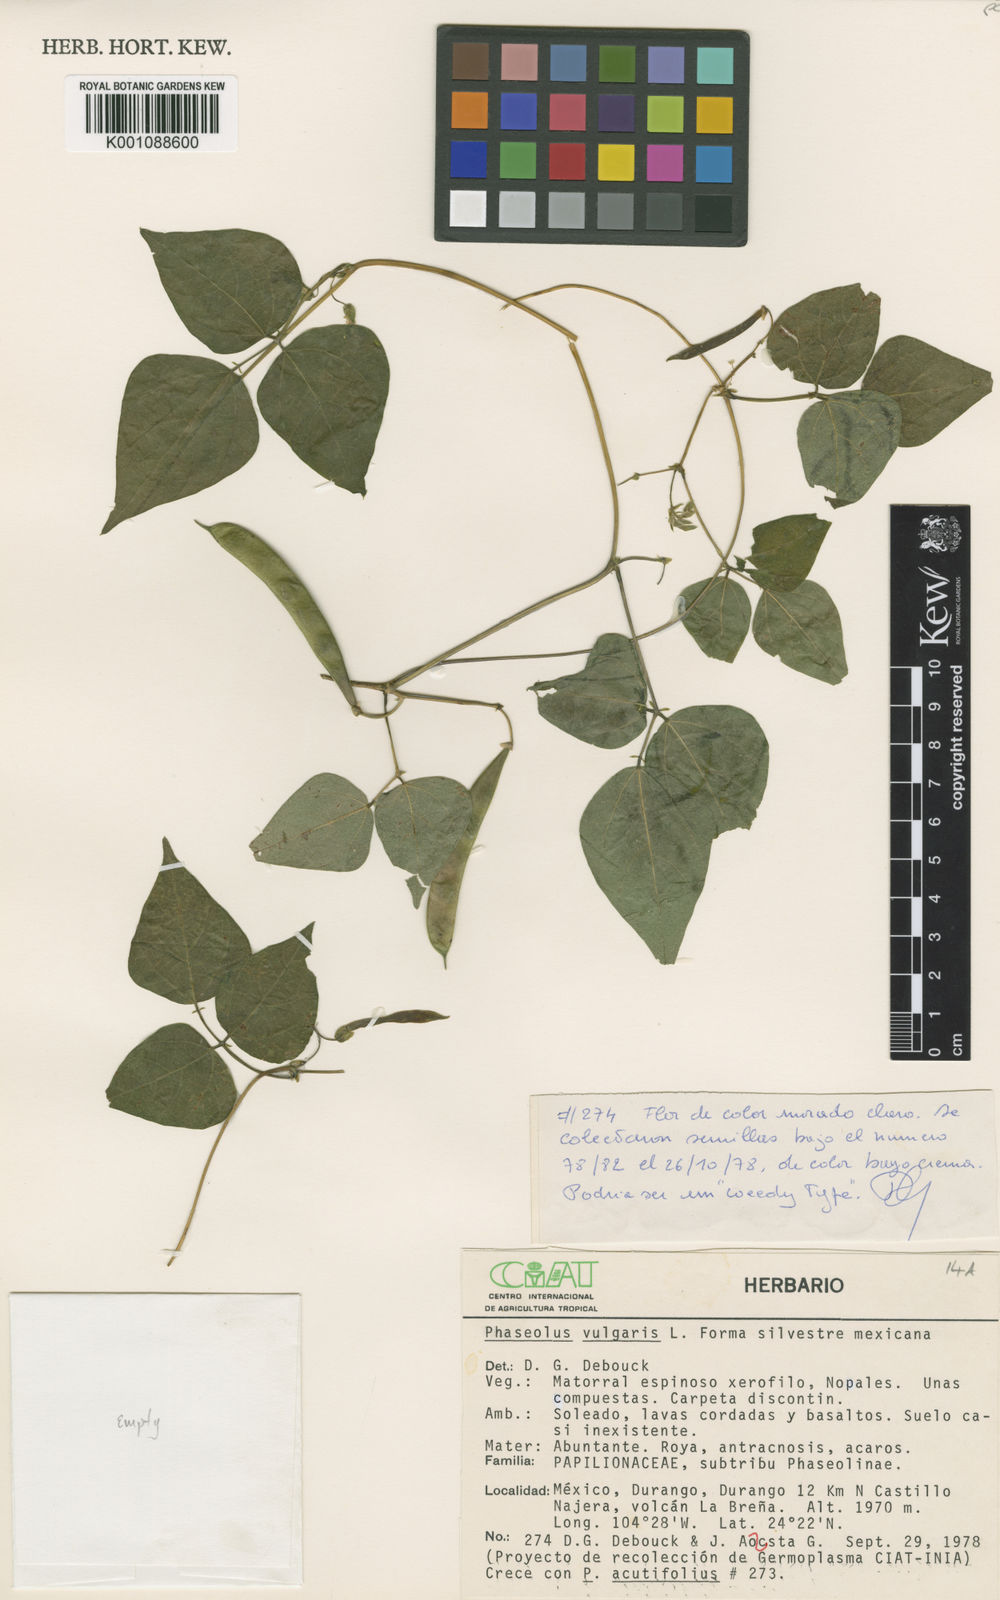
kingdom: Plantae
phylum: Tracheophyta
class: Magnoliopsida
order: Fabales
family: Fabaceae
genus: Phaseolus
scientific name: Phaseolus vulgaris
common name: Bean
